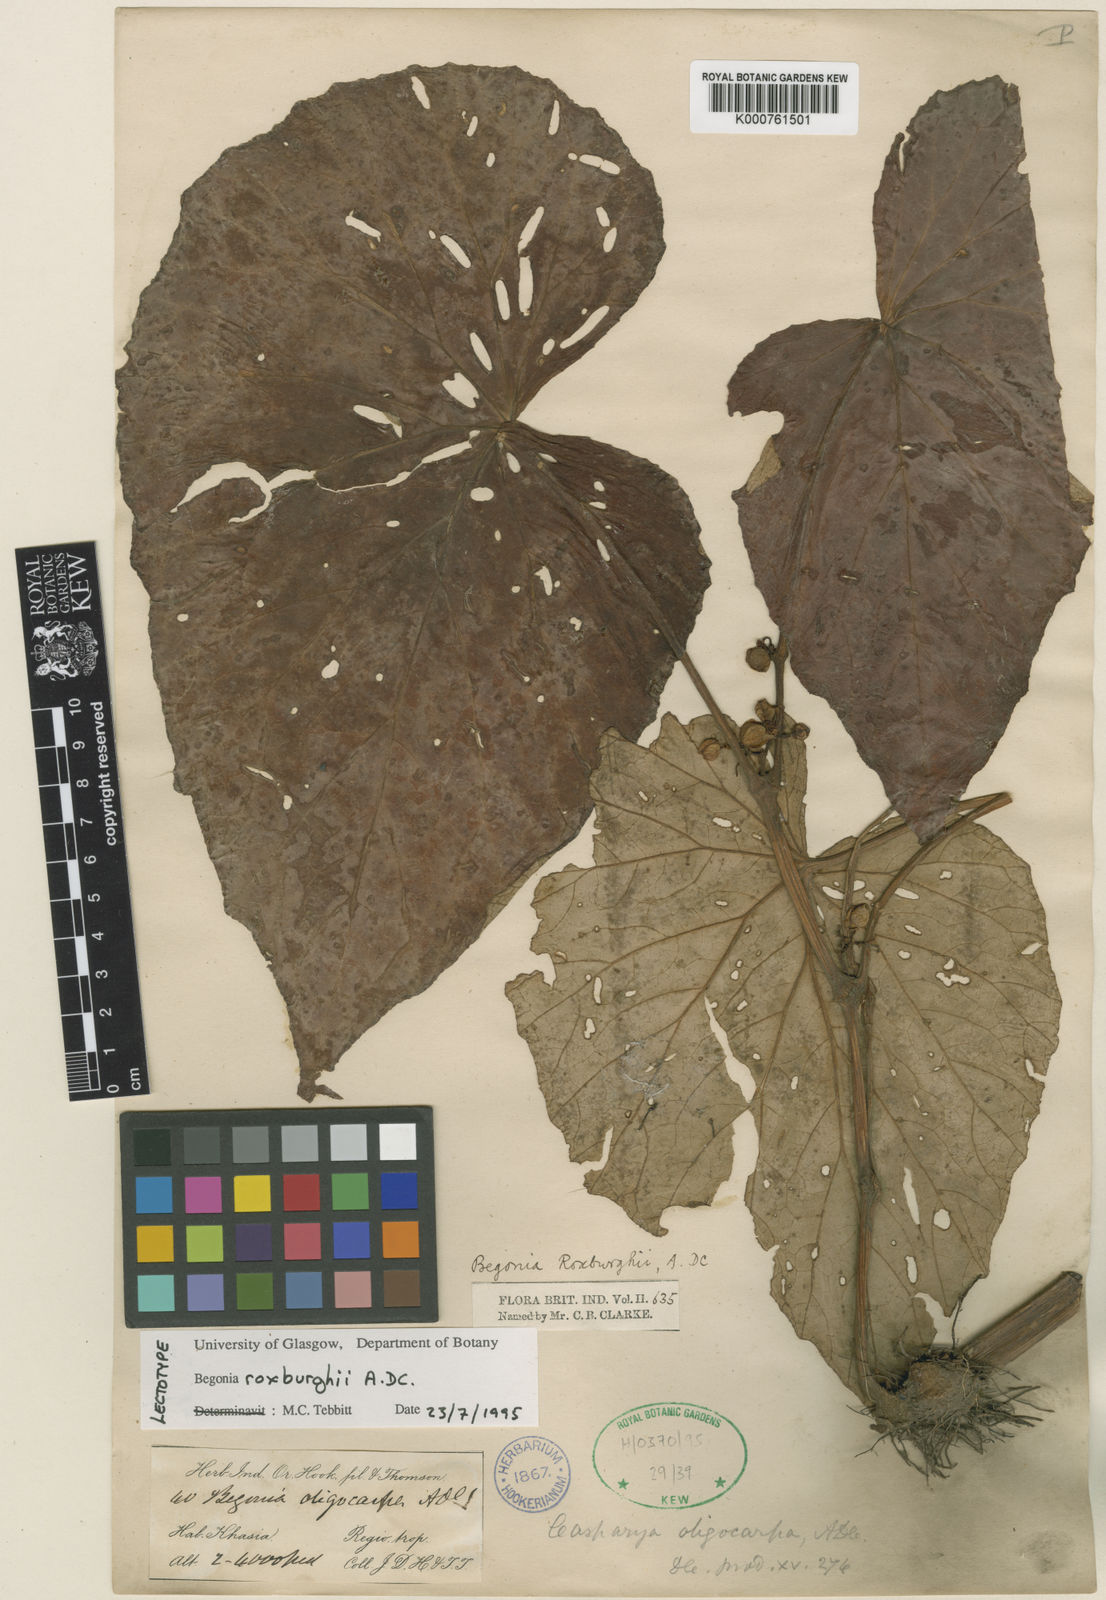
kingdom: Plantae
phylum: Tracheophyta
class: Magnoliopsida
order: Cucurbitales
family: Begoniaceae
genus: Begonia
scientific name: Begonia roxburghii
